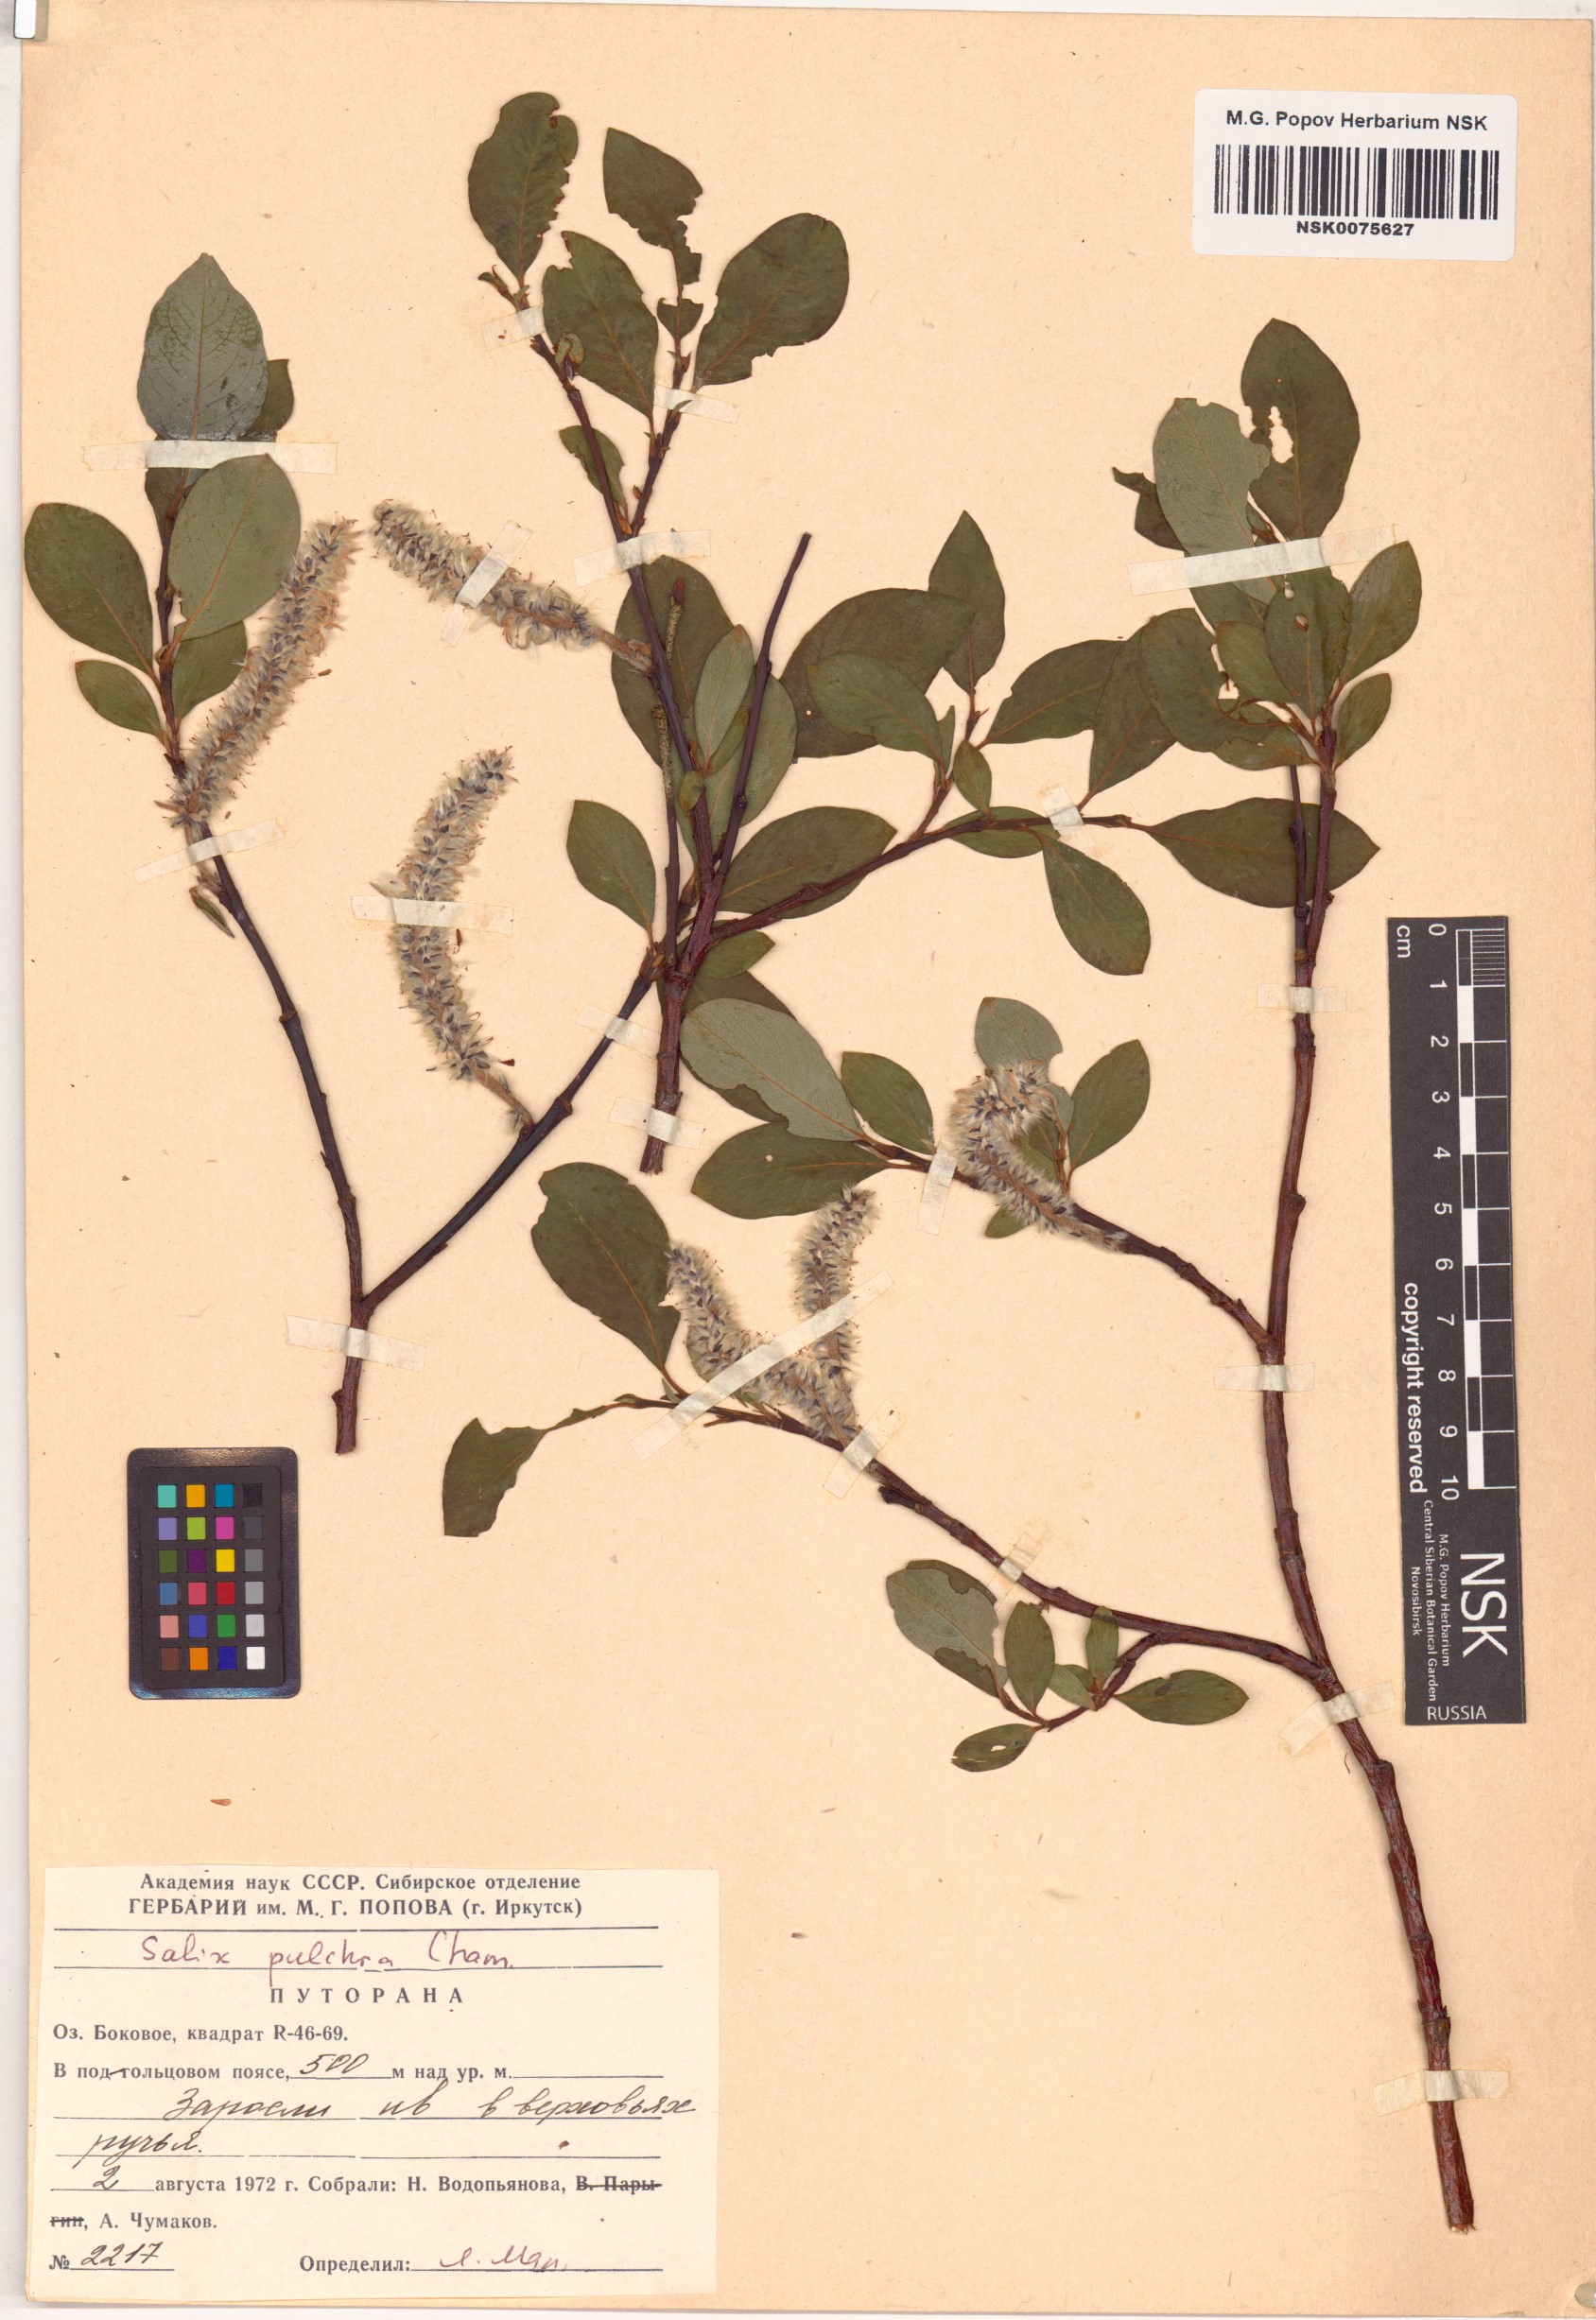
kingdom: Plantae
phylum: Tracheophyta
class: Magnoliopsida
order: Malpighiales
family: Salicaceae
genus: Salix
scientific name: Salix pulchra
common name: Diamond-leaved willow
